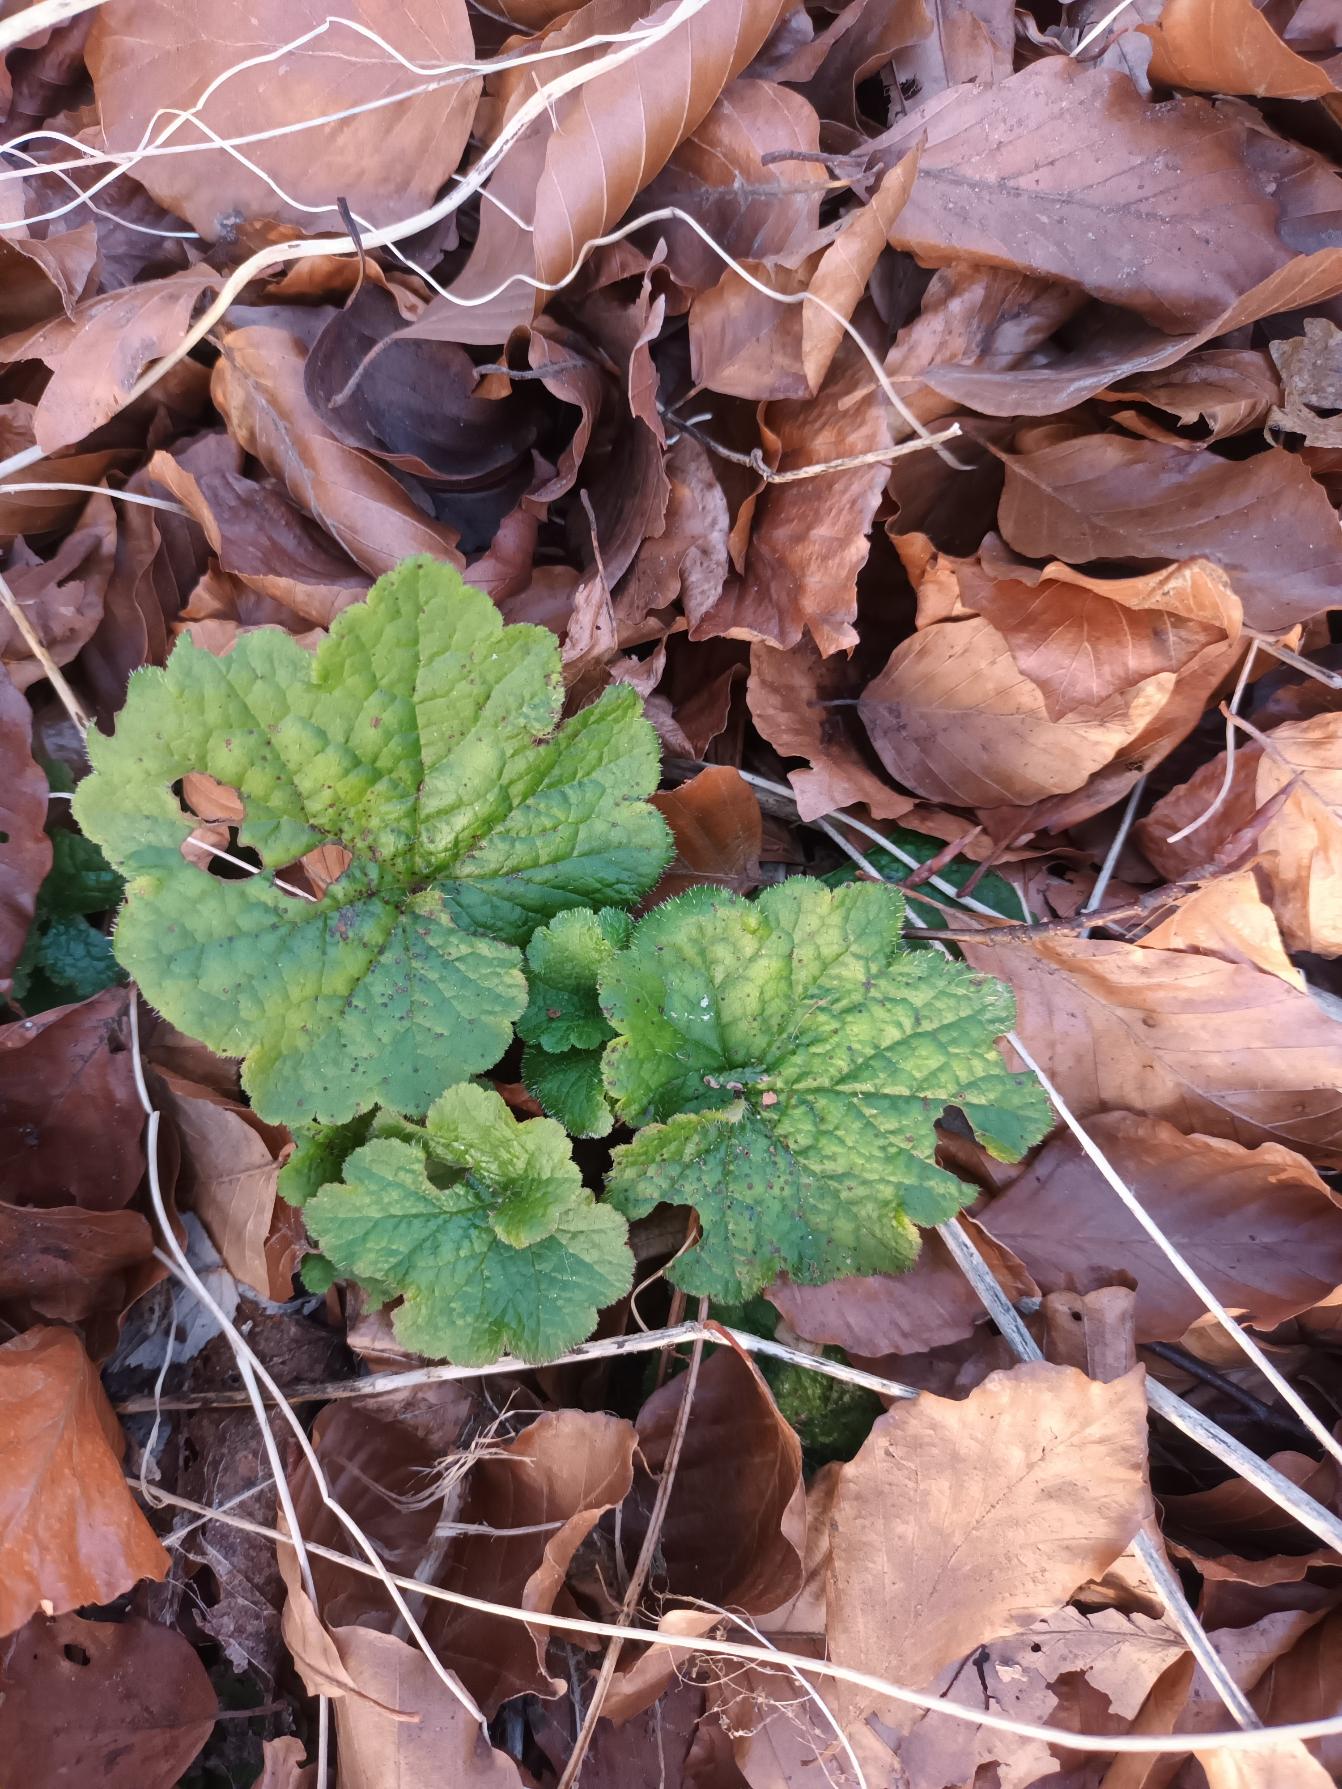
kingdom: Plantae
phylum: Tracheophyta
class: Magnoliopsida
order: Saxifragales
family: Saxifragaceae
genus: Tellima
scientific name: Tellima grandiflora
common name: Biskophat
